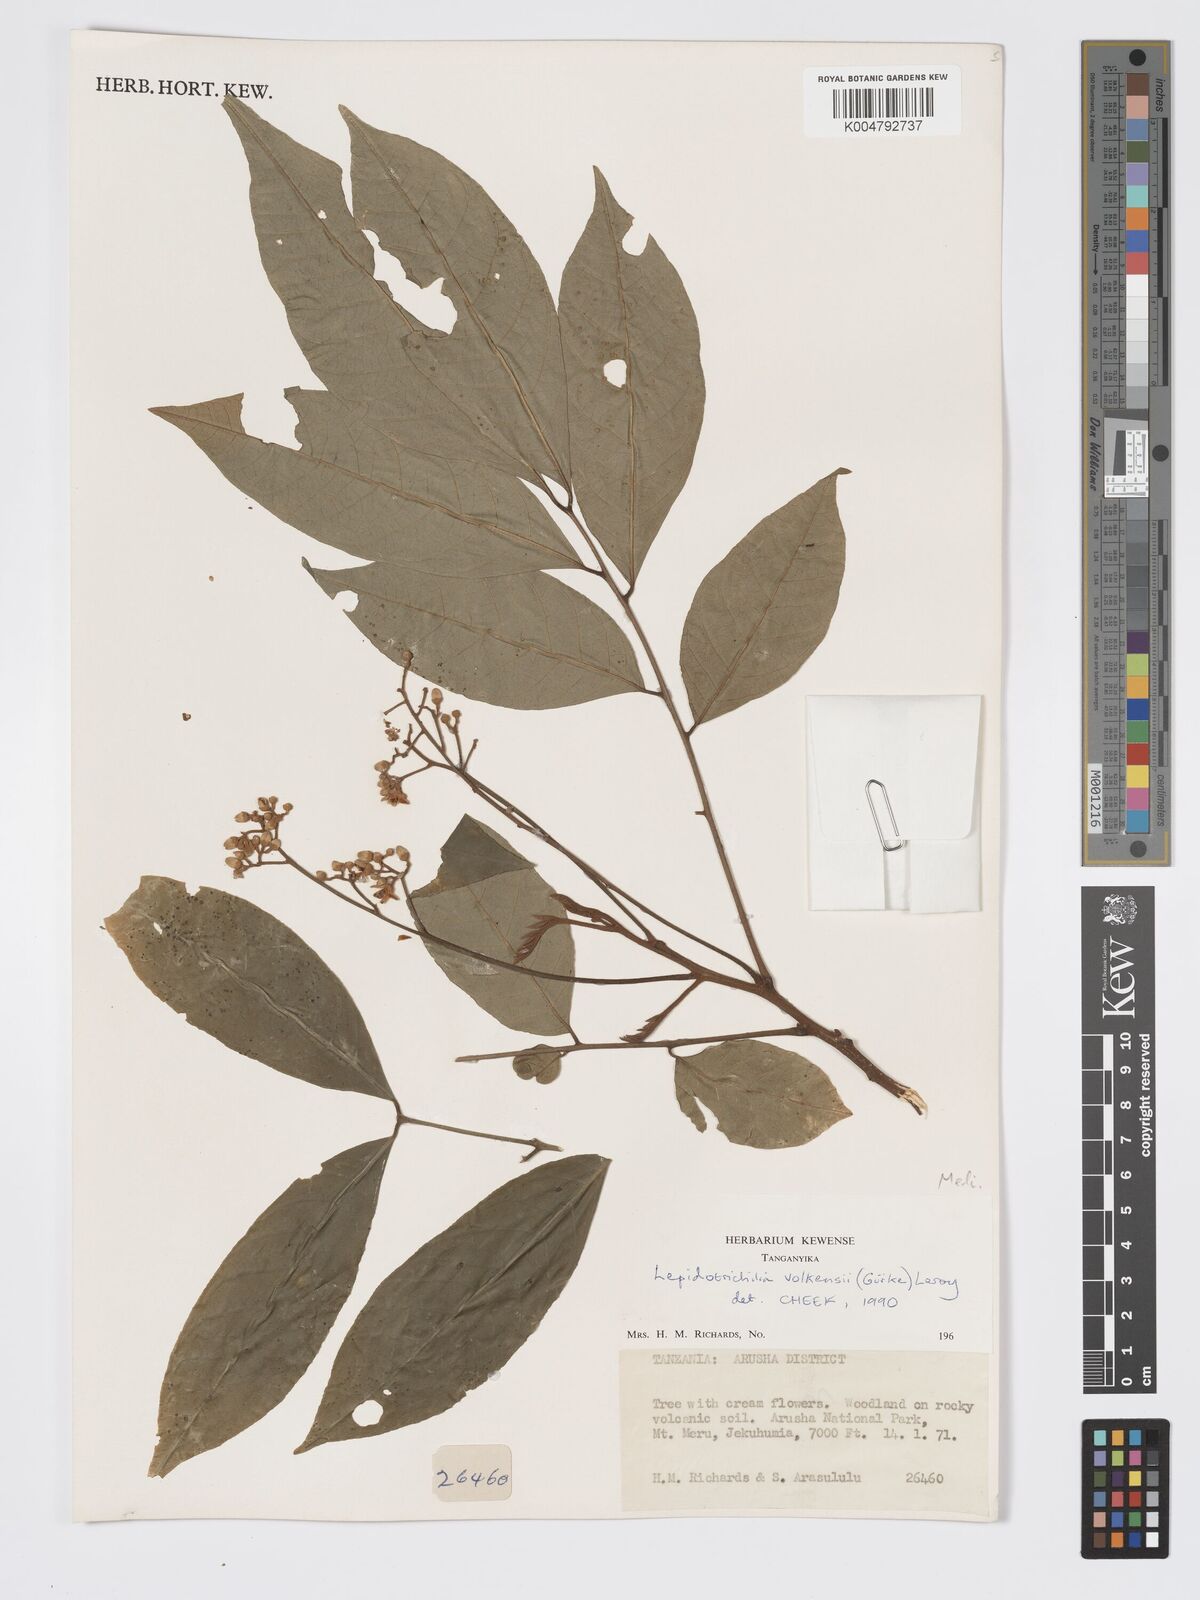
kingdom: Plantae
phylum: Tracheophyta
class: Magnoliopsida
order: Sapindales
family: Meliaceae
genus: Lepidotrichilia
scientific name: Lepidotrichilia volkensii
